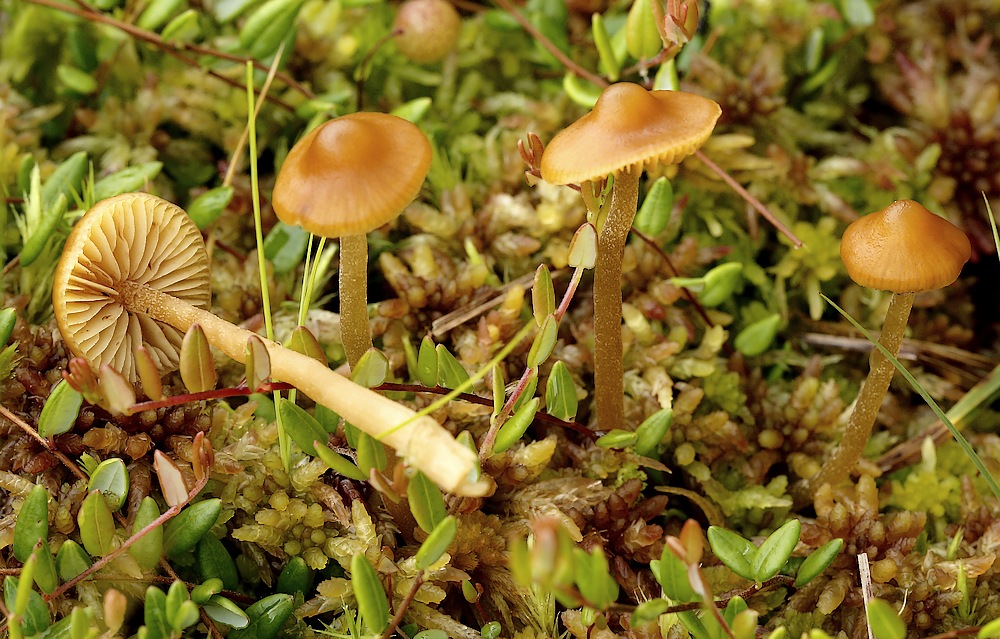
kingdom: Fungi
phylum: Basidiomycota
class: Agaricomycetes
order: Agaricales
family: Hymenogastraceae
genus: Galerina
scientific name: Galerina hybrida
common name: hængesæk-hjelmhat
